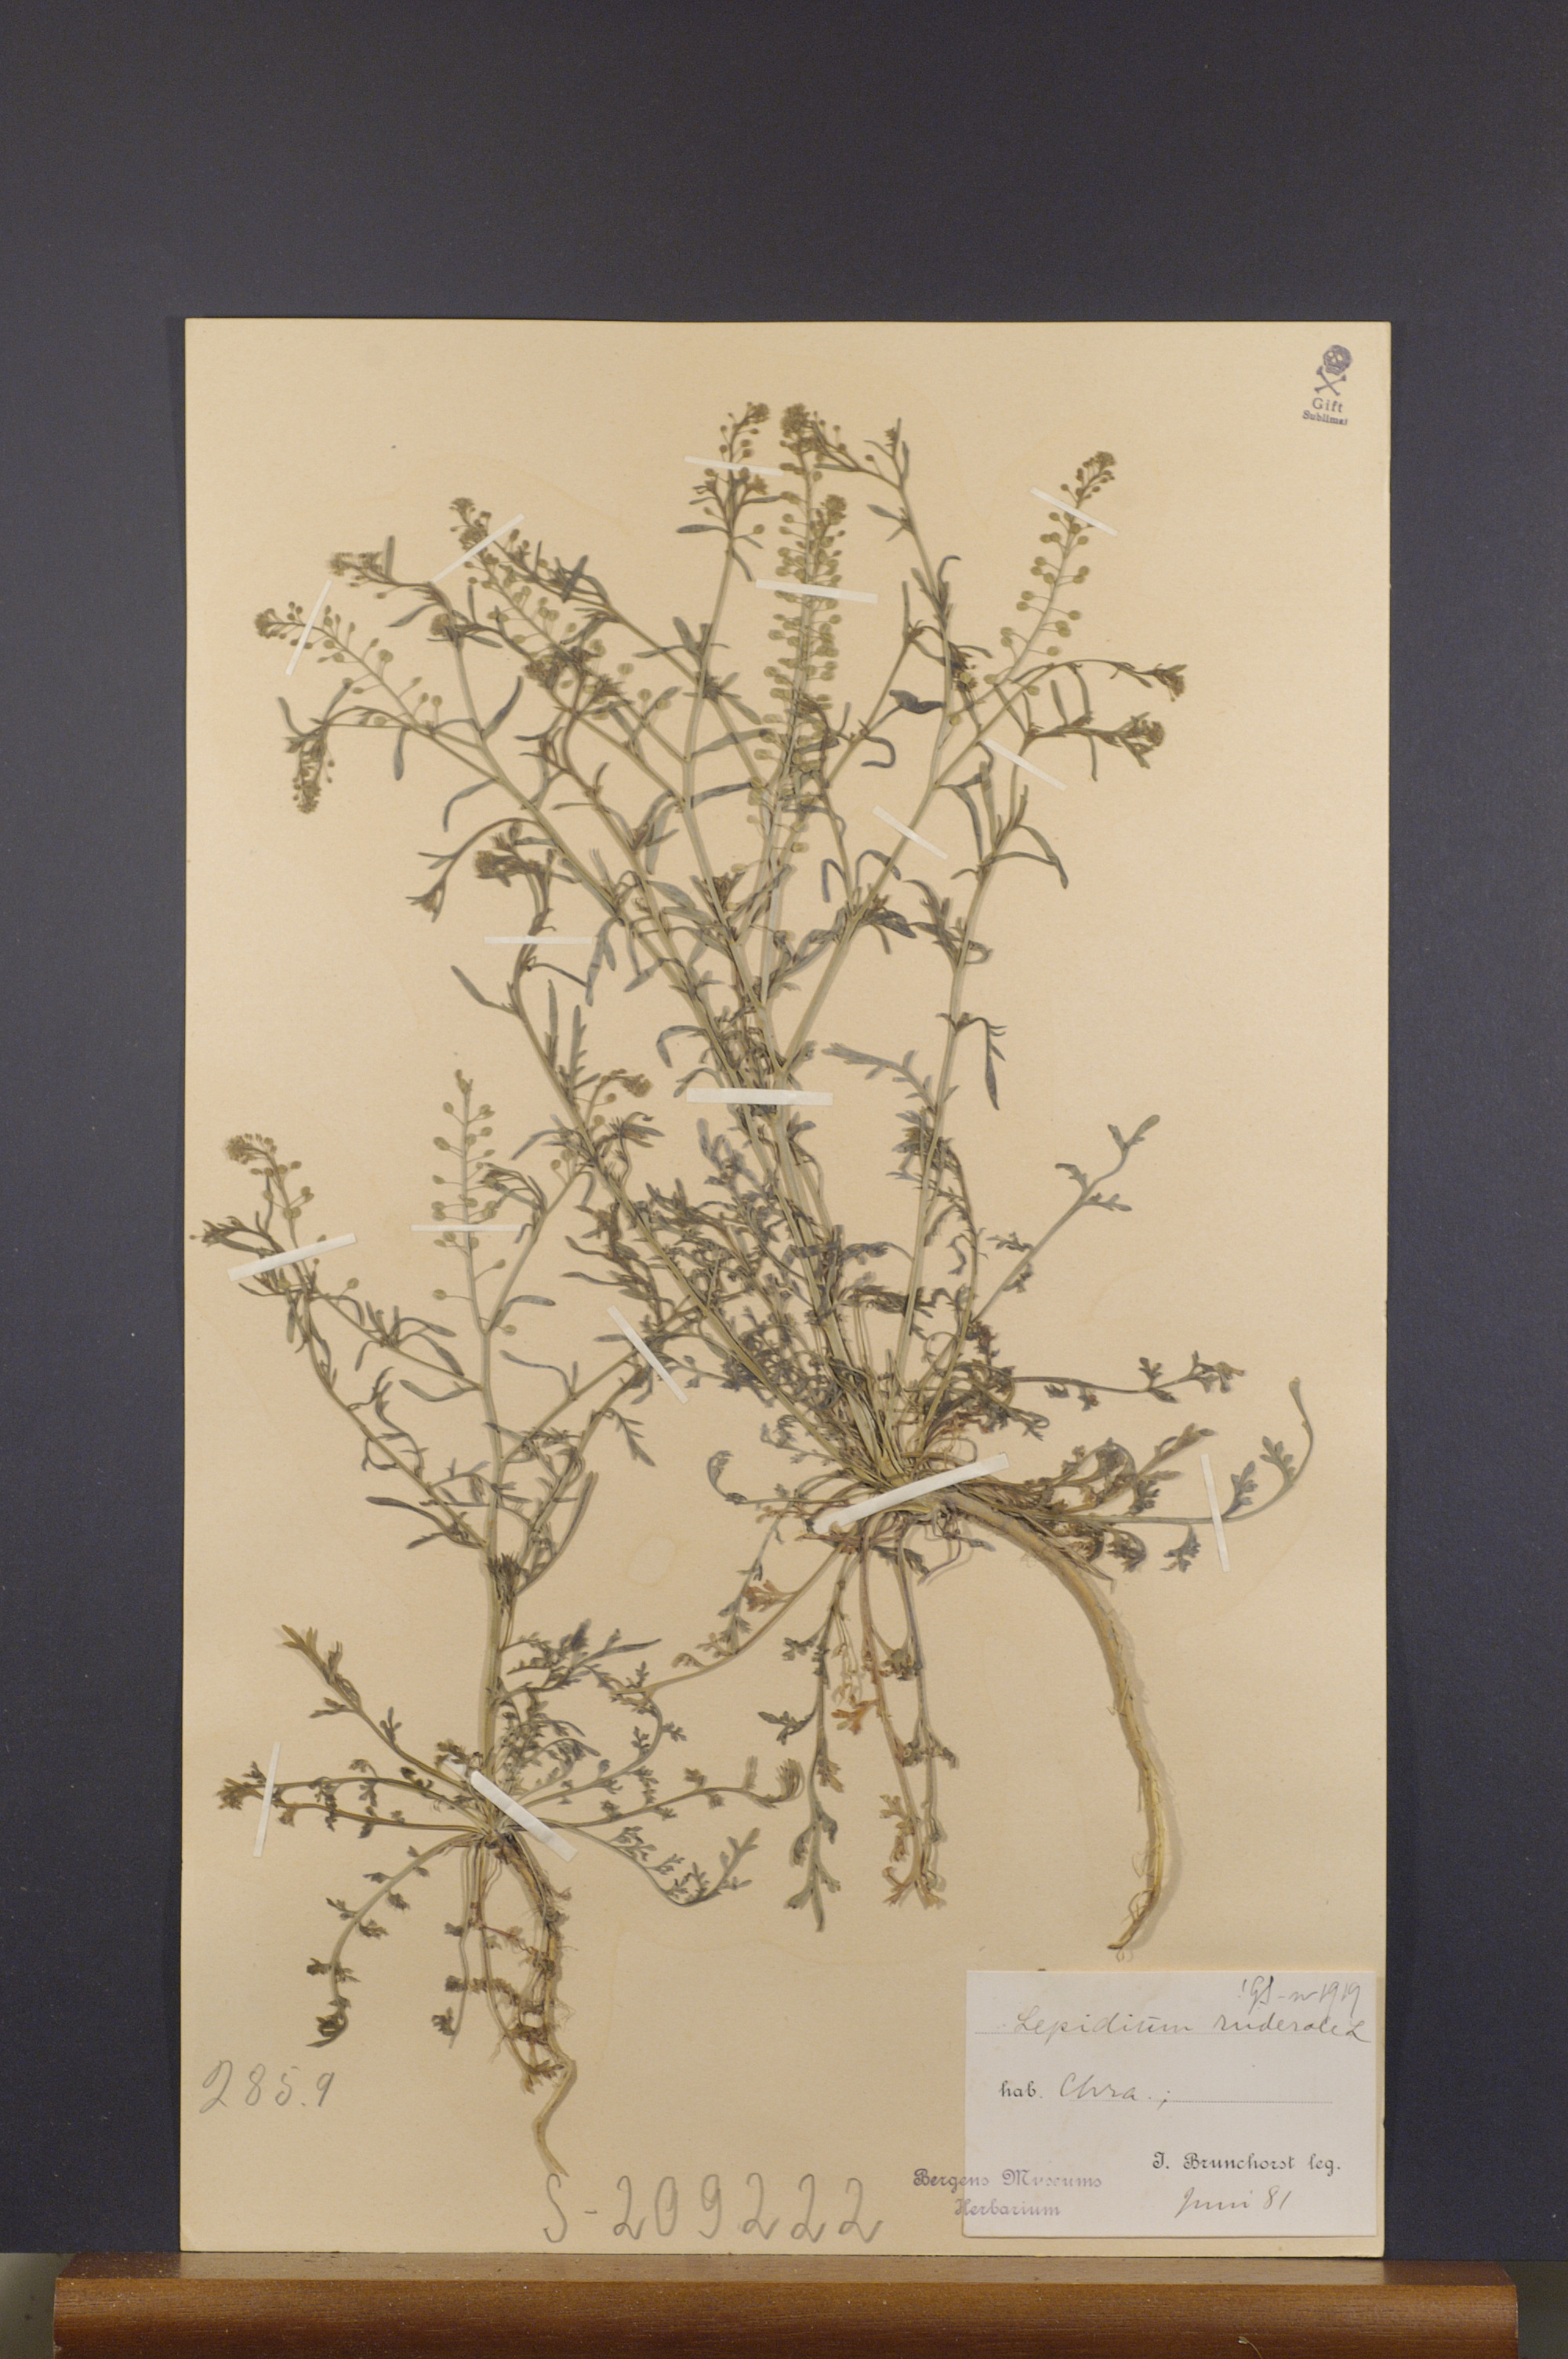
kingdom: Plantae
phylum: Tracheophyta
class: Magnoliopsida
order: Brassicales
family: Brassicaceae
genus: Lepidium
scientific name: Lepidium ruderale
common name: Narrow-leaved pepperwort
